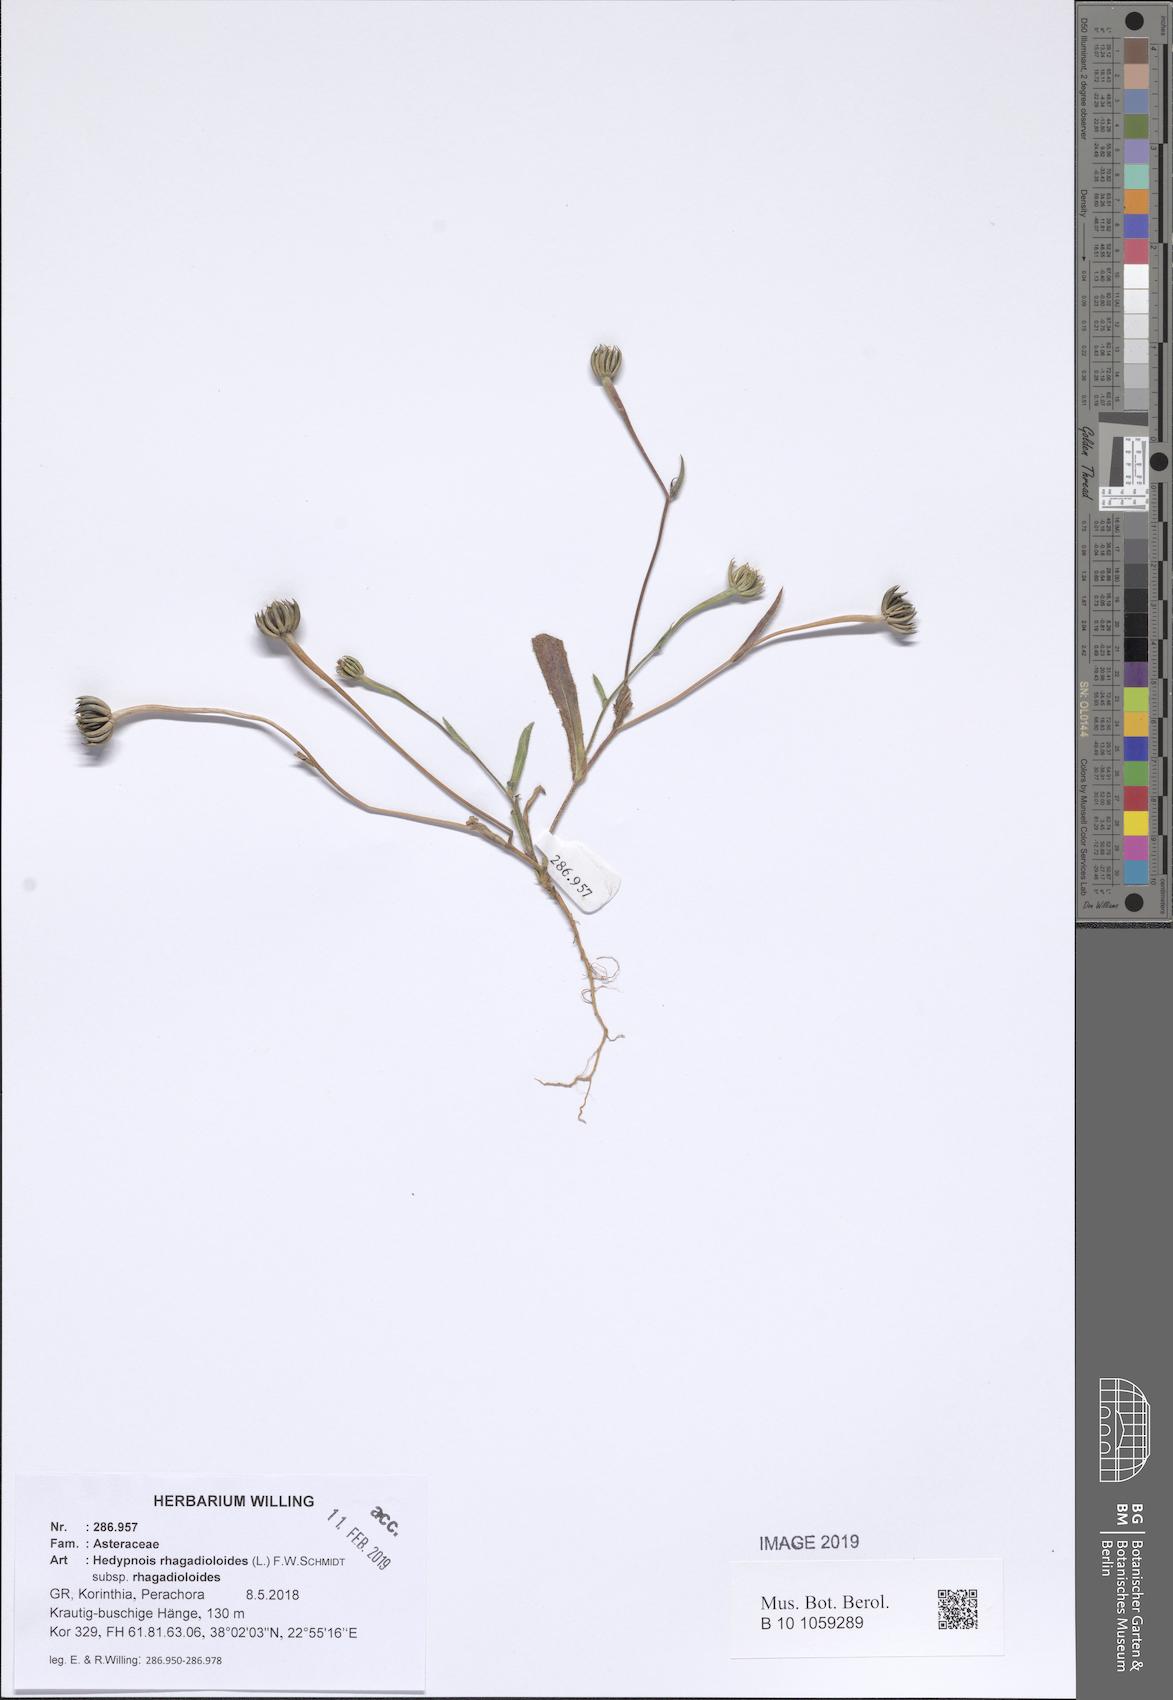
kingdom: Plantae
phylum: Tracheophyta
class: Magnoliopsida
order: Asterales
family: Asteraceae
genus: Hedypnois
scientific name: Hedypnois rhagadioloides
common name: Cretan weed
